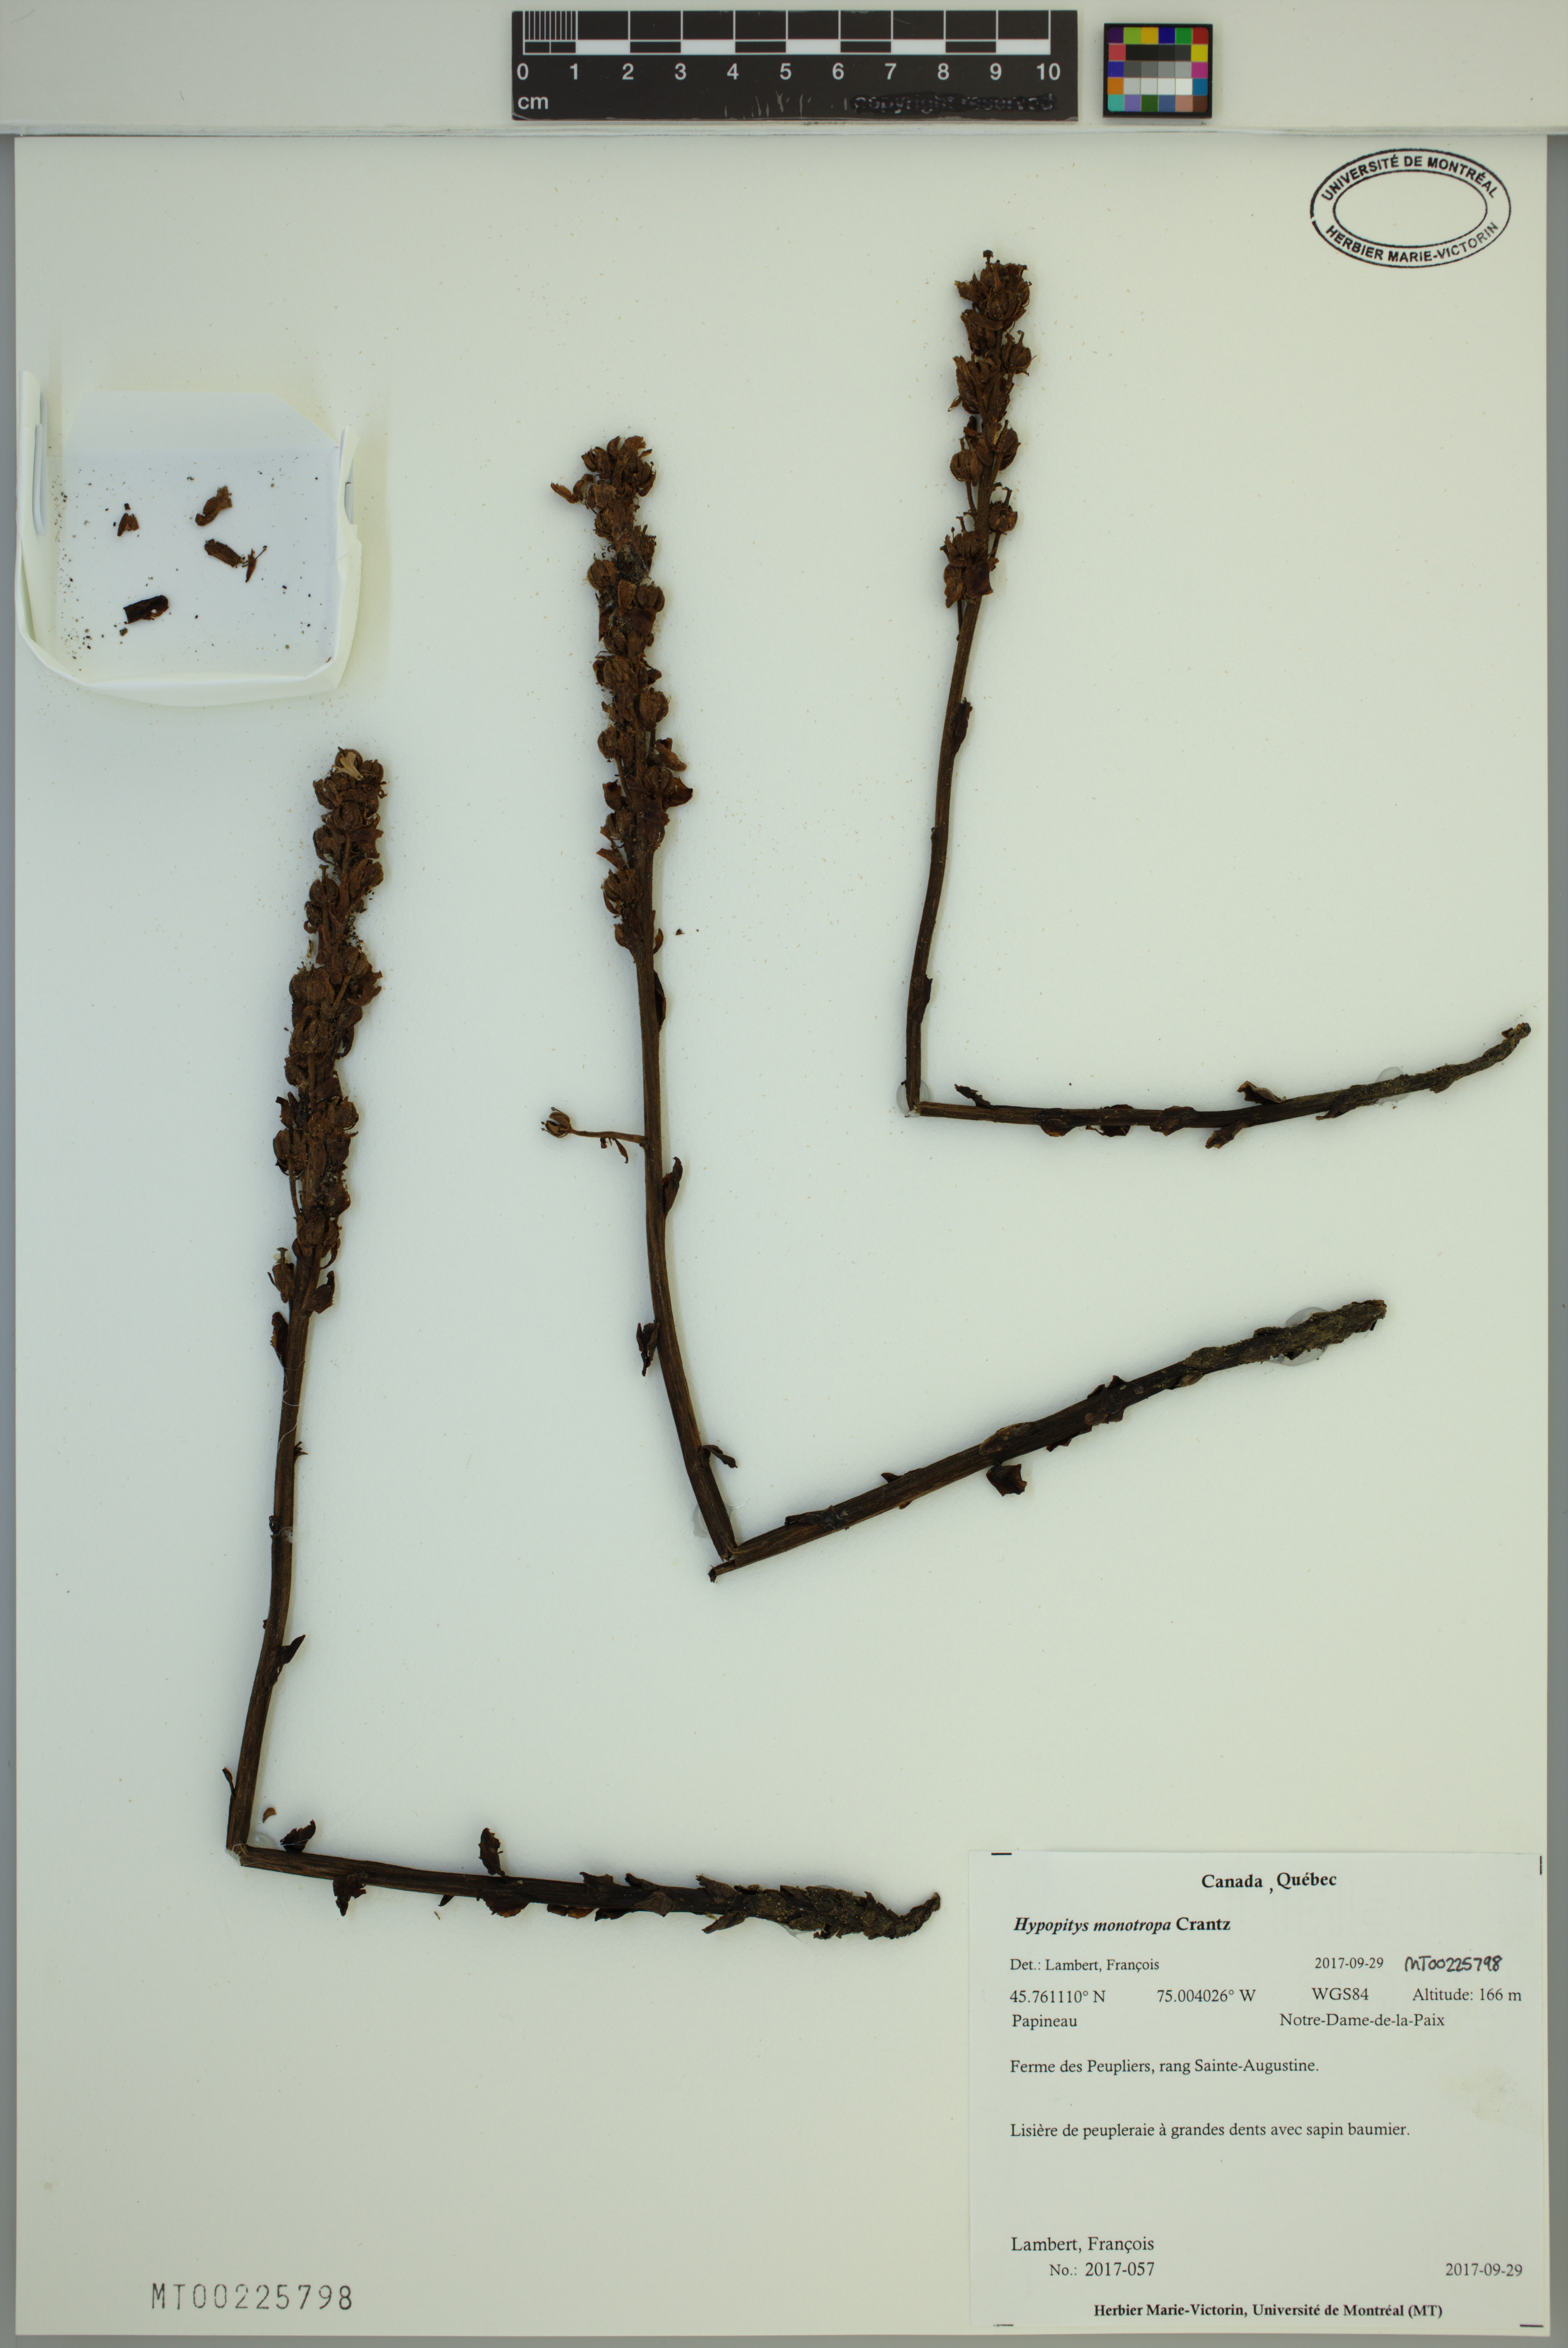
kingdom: Plantae
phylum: Tracheophyta
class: Magnoliopsida
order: Ericales
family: Ericaceae
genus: Hypopitys
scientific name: Hypopitys monotropa
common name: Yellow bird's-nest
